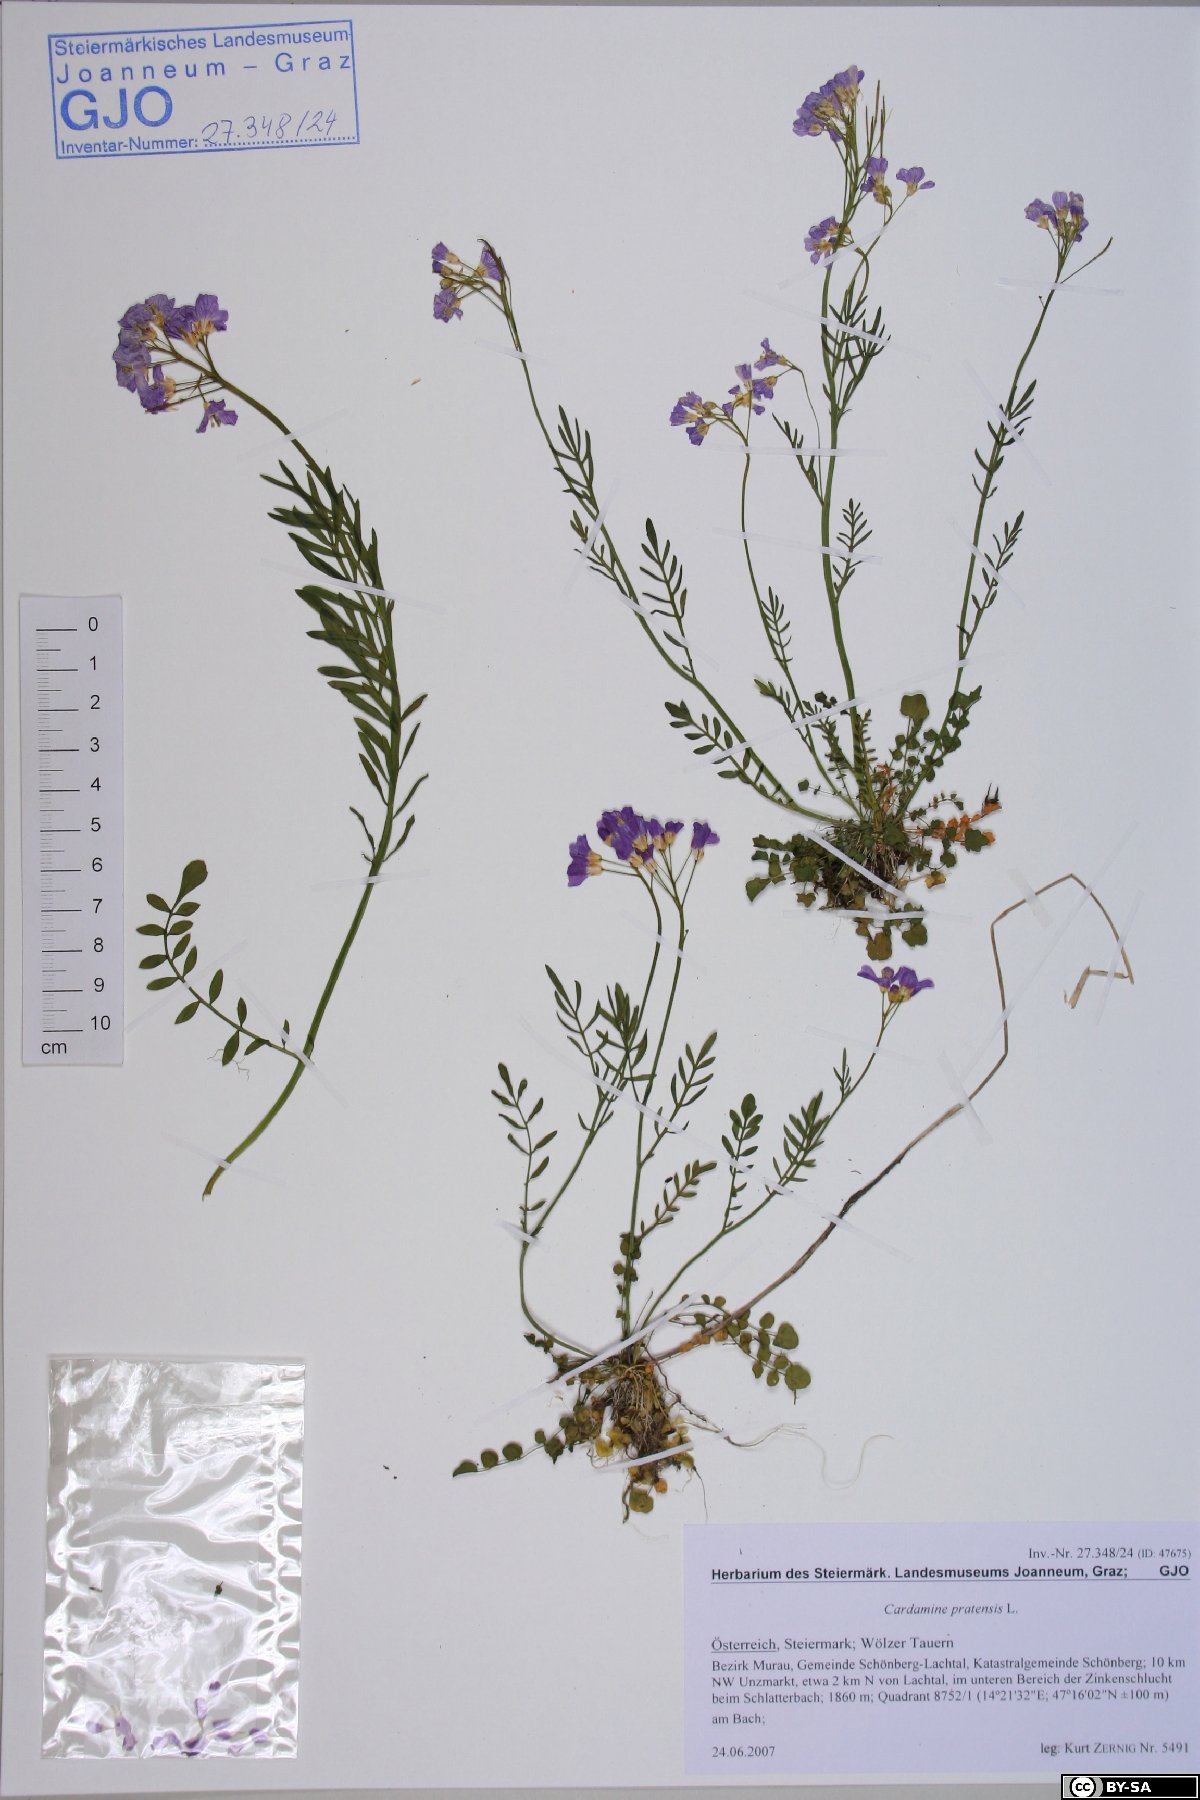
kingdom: Plantae
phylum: Tracheophyta
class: Magnoliopsida
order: Brassicales
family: Brassicaceae
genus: Cardamine
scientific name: Cardamine pratensis
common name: Cuckoo flower
